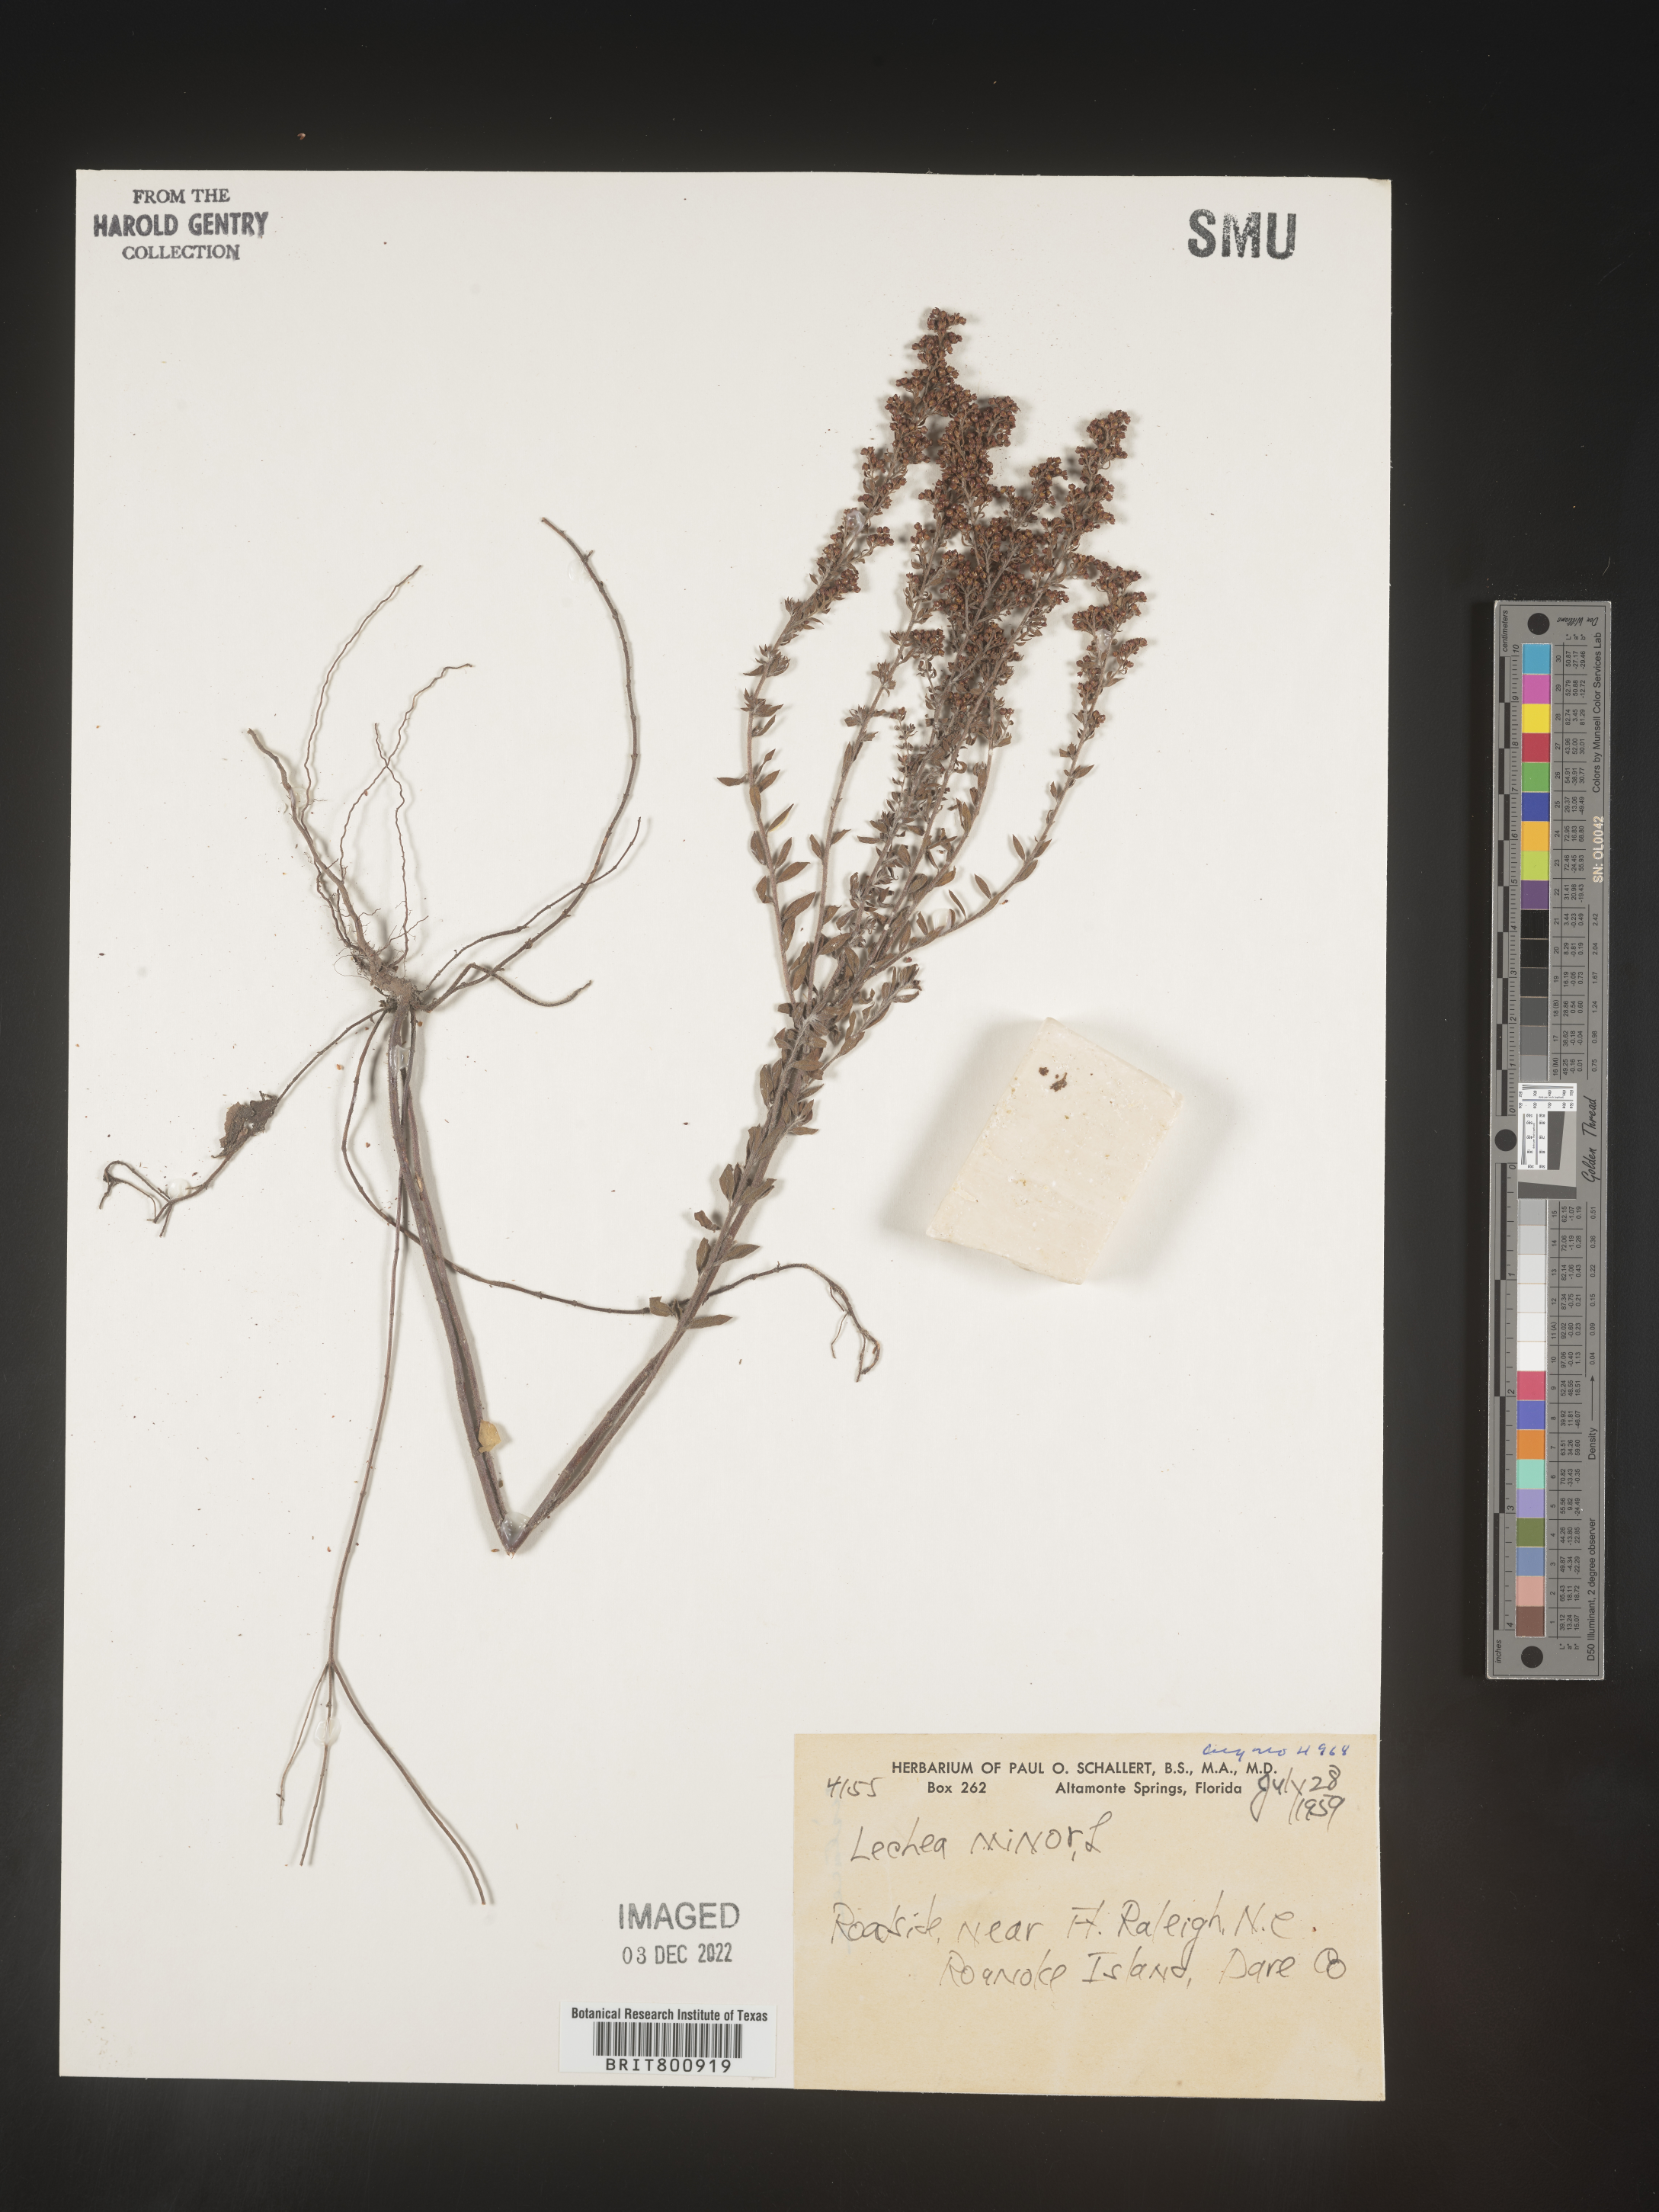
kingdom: Plantae
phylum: Tracheophyta
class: Magnoliopsida
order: Malvales
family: Cistaceae
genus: Lechea
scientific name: Lechea minor
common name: Thyme-leaf pinweed
